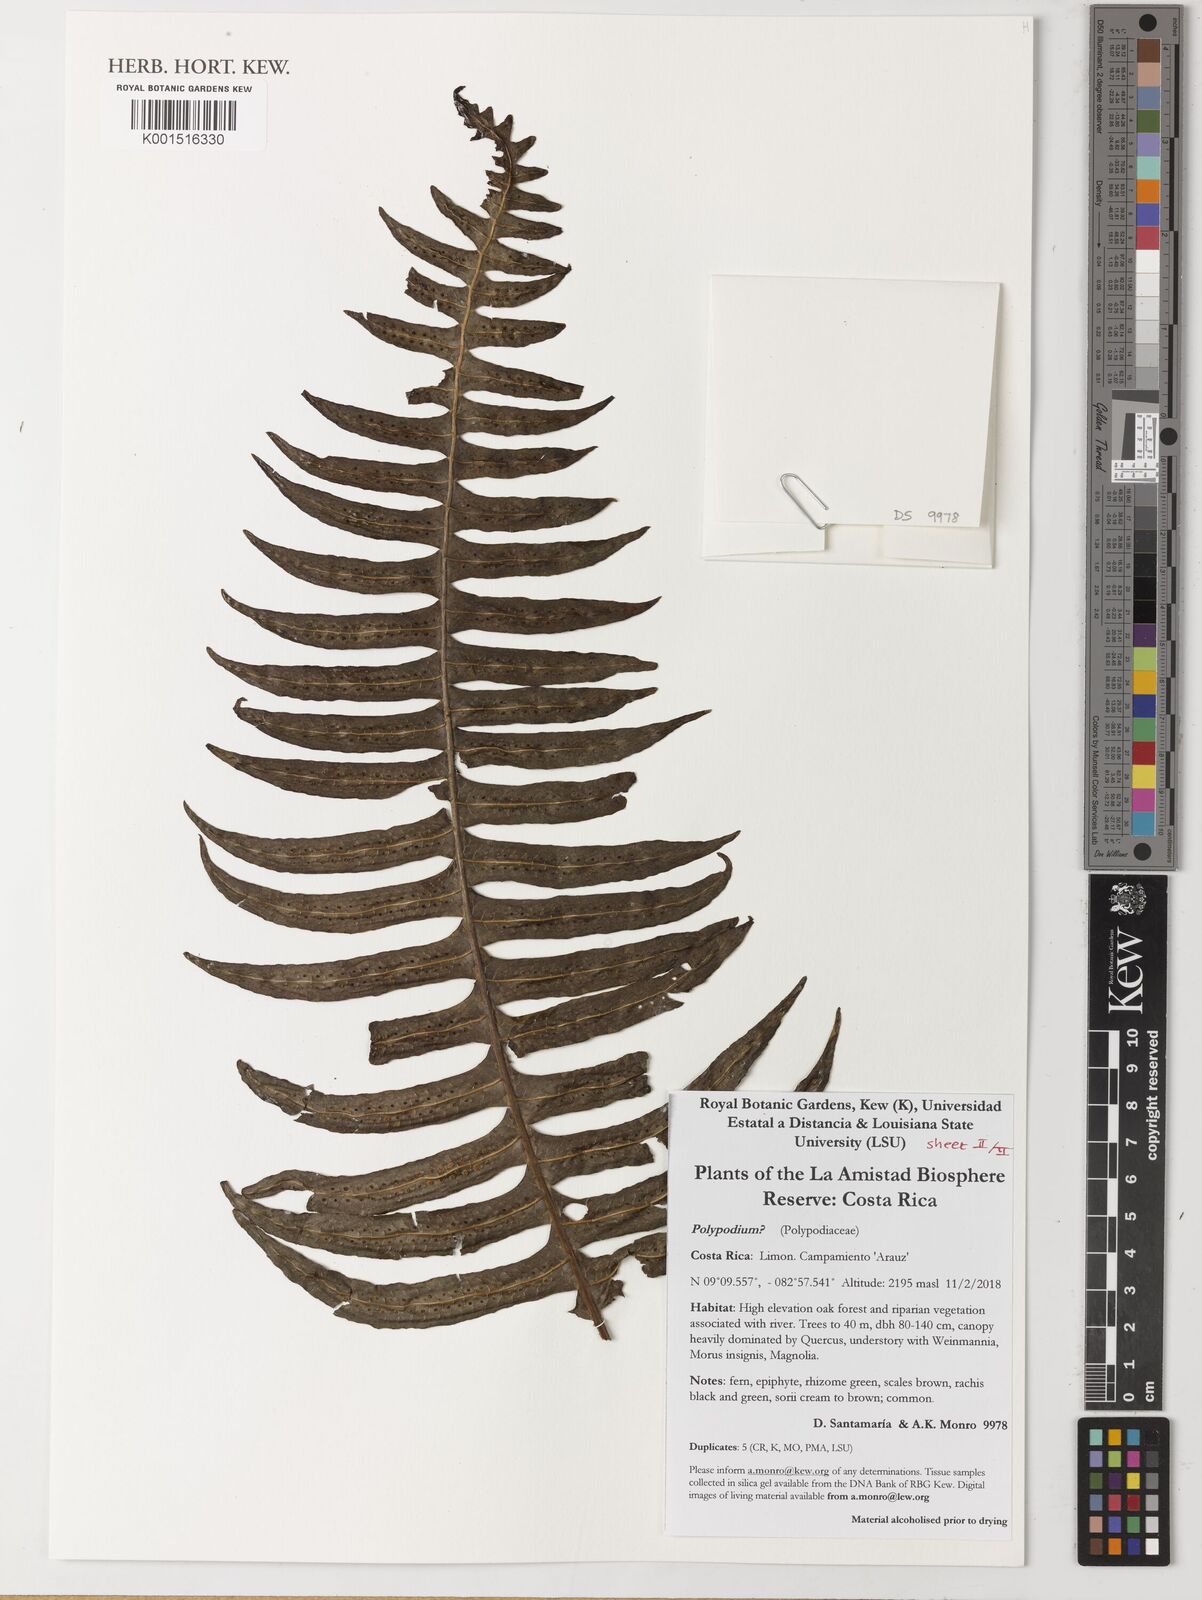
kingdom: Plantae
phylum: Tracheophyta
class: Polypodiopsida
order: Polypodiales
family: Polypodiaceae
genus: Polypodium
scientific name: Polypodium
